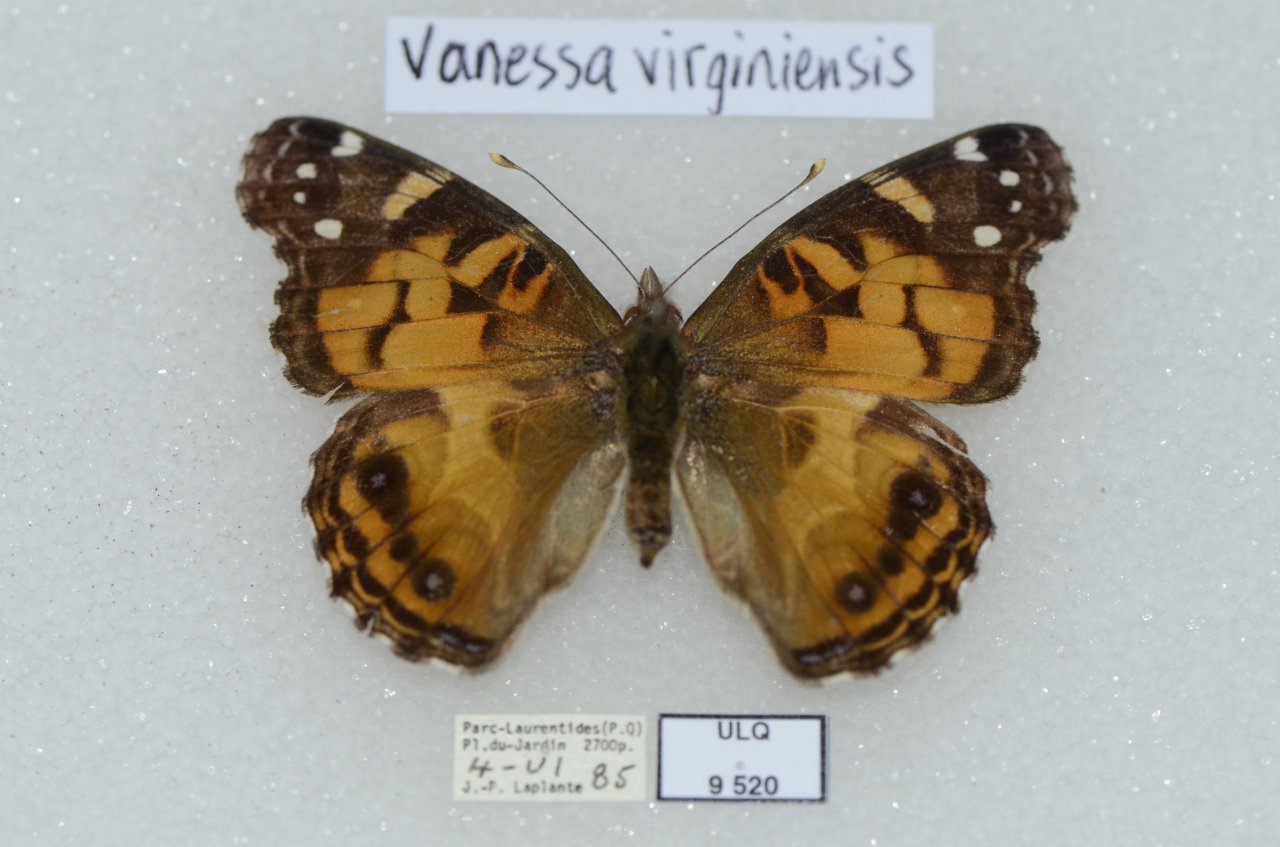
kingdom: Animalia
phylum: Arthropoda
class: Insecta
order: Lepidoptera
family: Nymphalidae
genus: Vanessa
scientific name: Vanessa virginiensis
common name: American Lady
